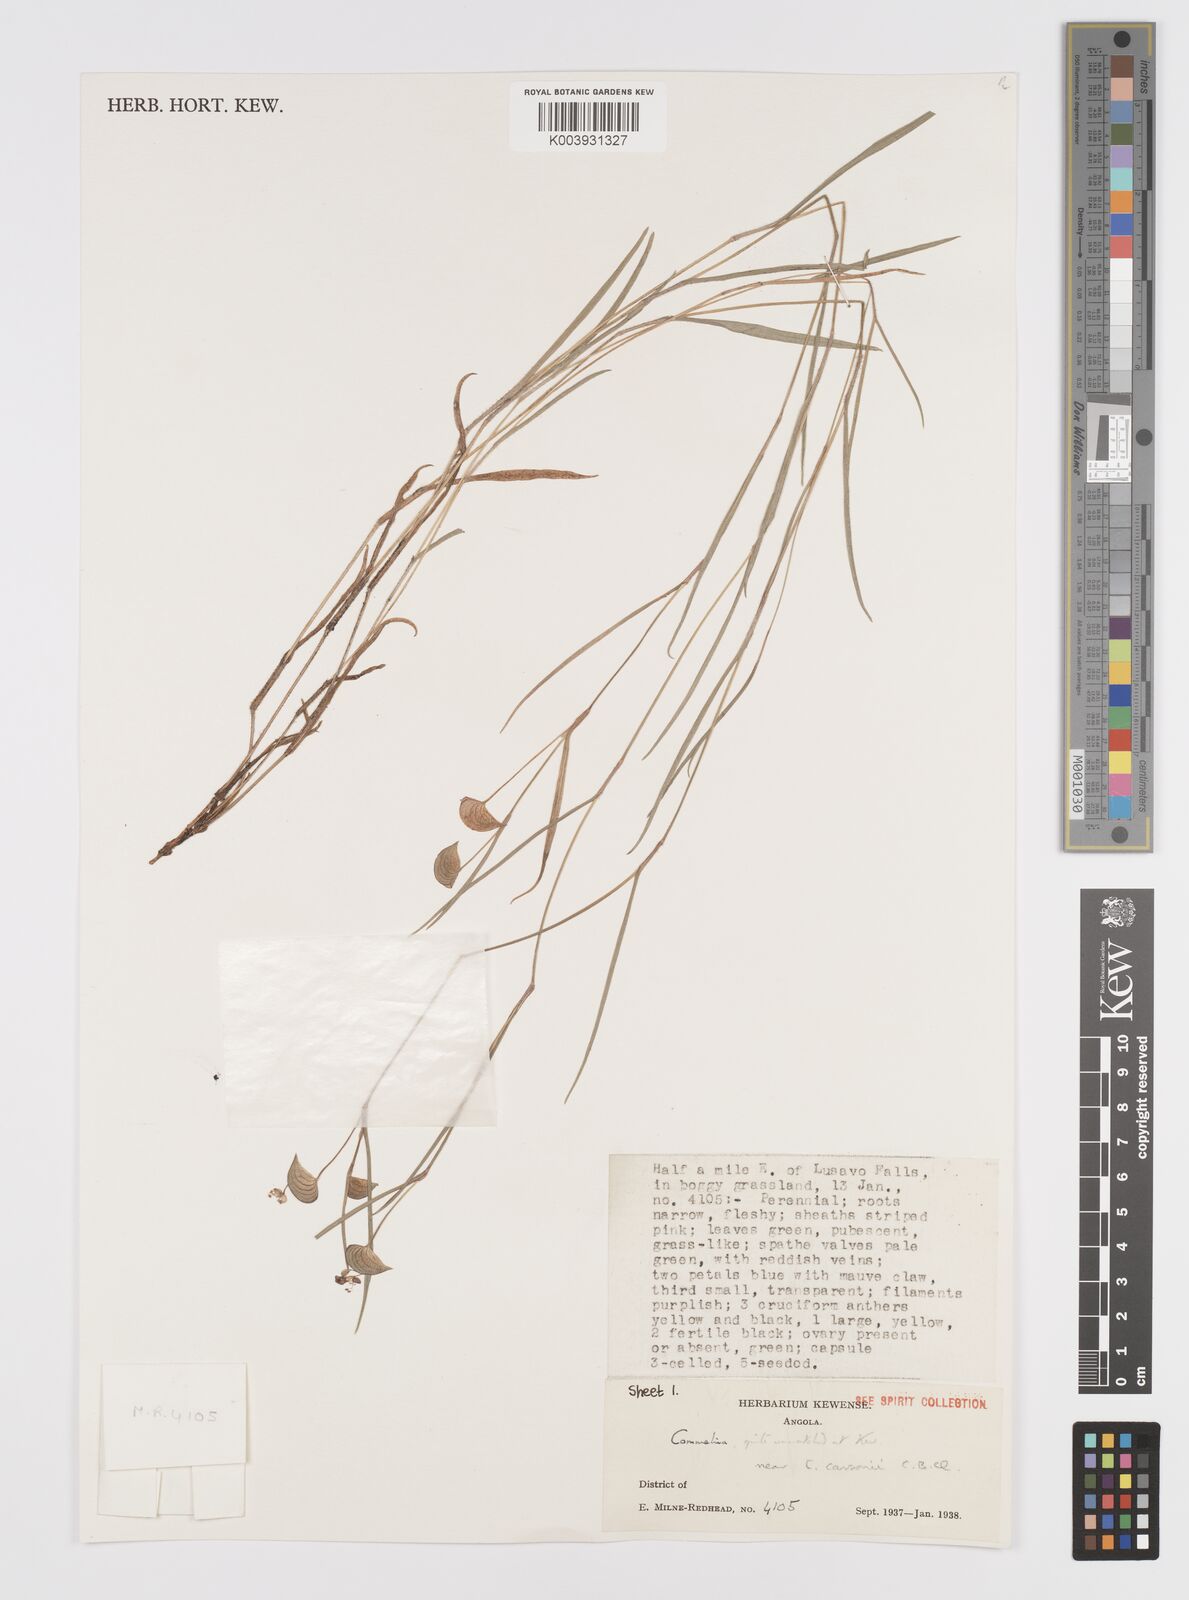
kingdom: Plantae
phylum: Tracheophyta
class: Liliopsida
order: Commelinales
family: Commelinaceae
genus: Commelina
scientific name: Commelina
